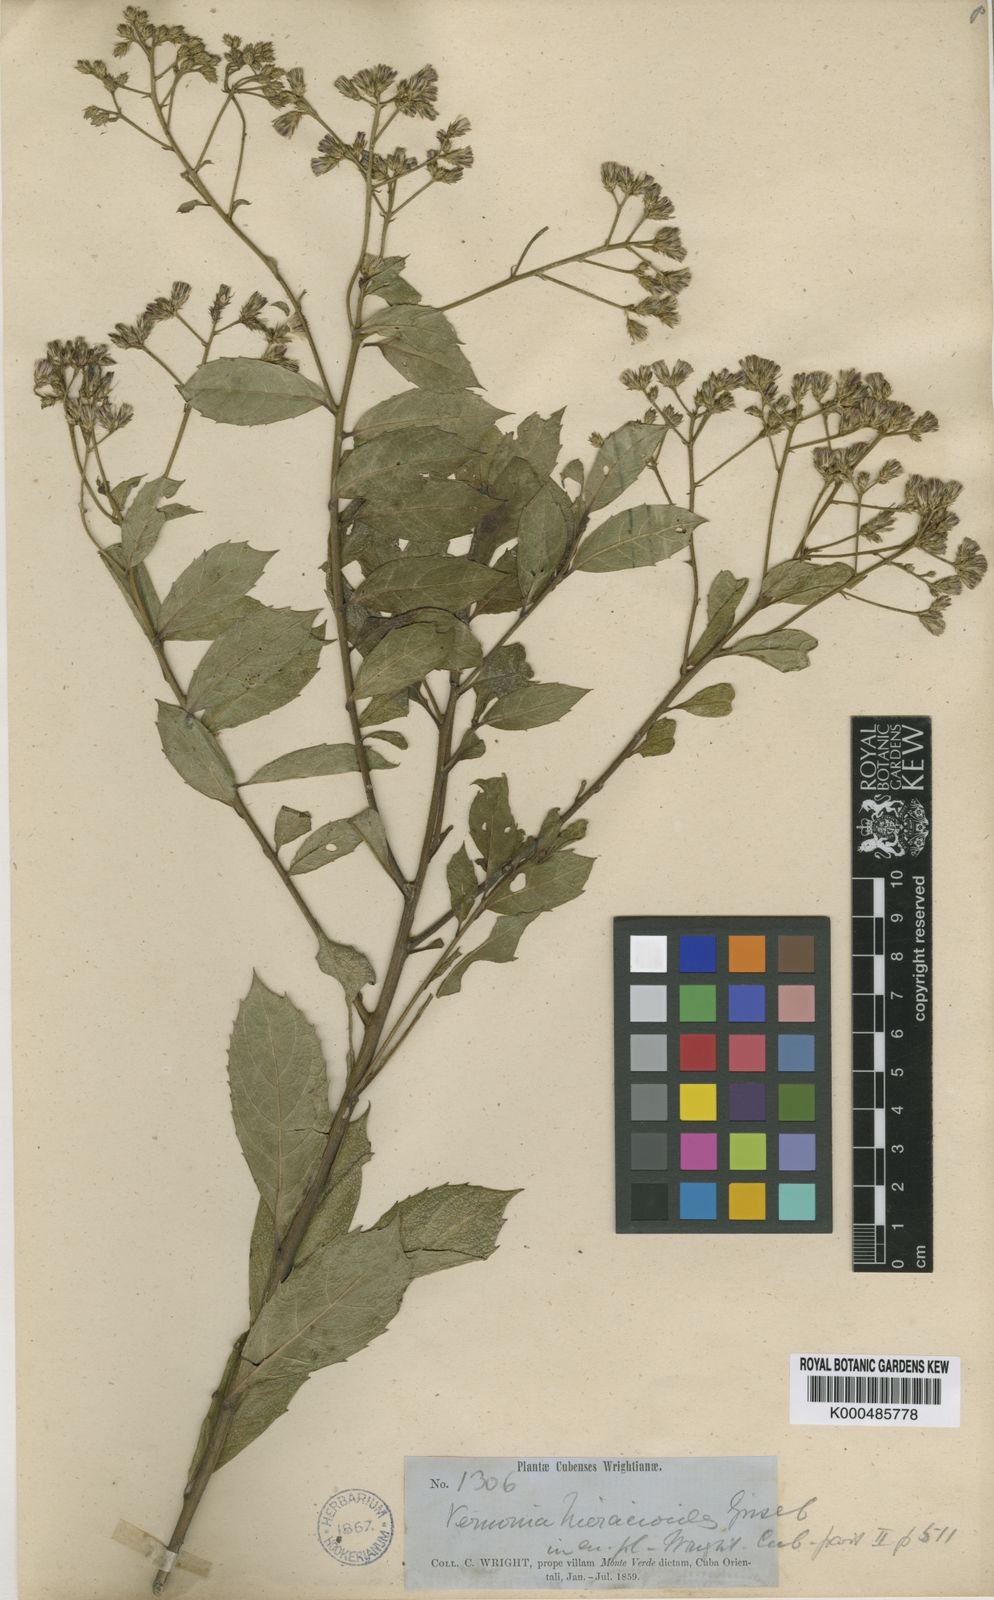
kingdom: Plantae
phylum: Tracheophyta
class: Magnoliopsida
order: Asterales
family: Asteraceae
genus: Vernonanthura
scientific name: Vernonanthura hieracioides
